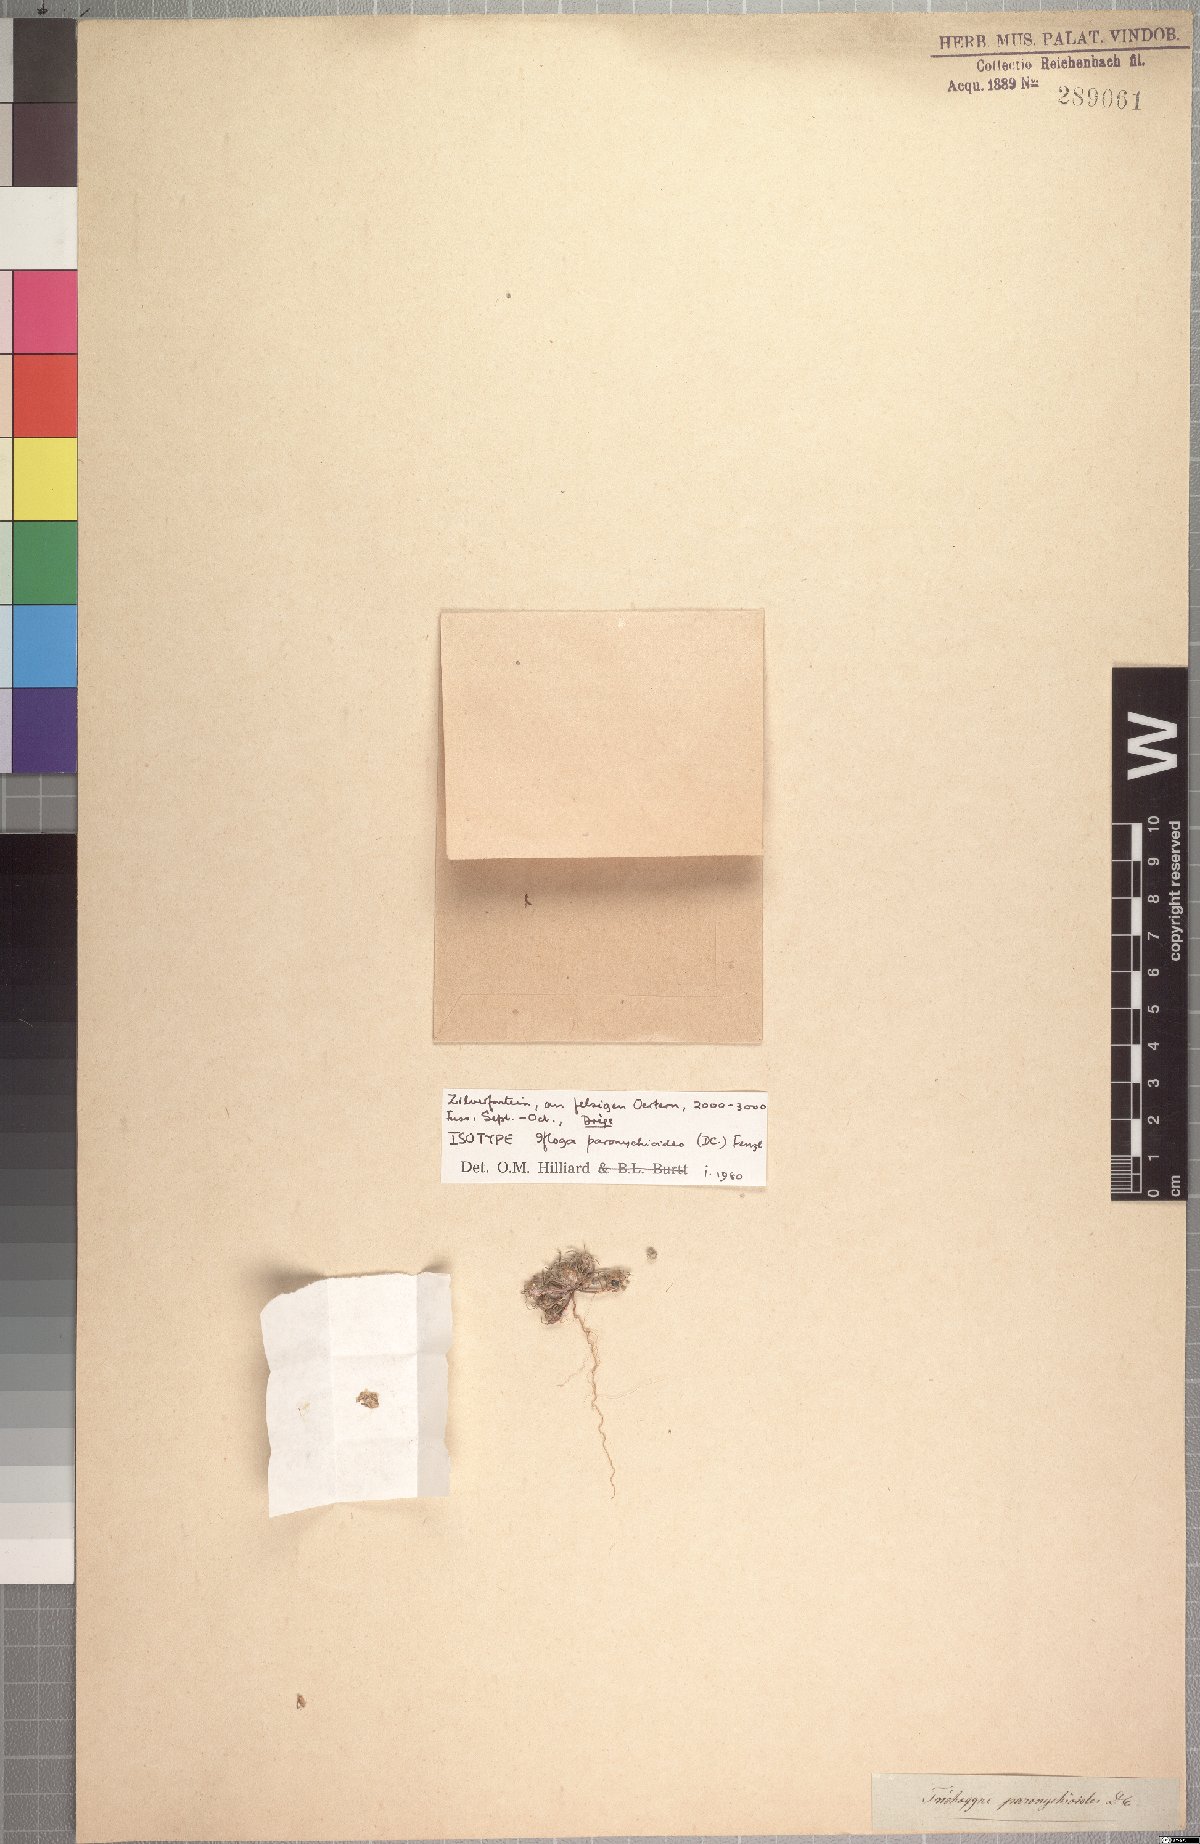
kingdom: Plantae
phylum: Tracheophyta
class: Magnoliopsida
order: Asterales
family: Asteraceae
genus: Ifloga
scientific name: Ifloga paronychioides
